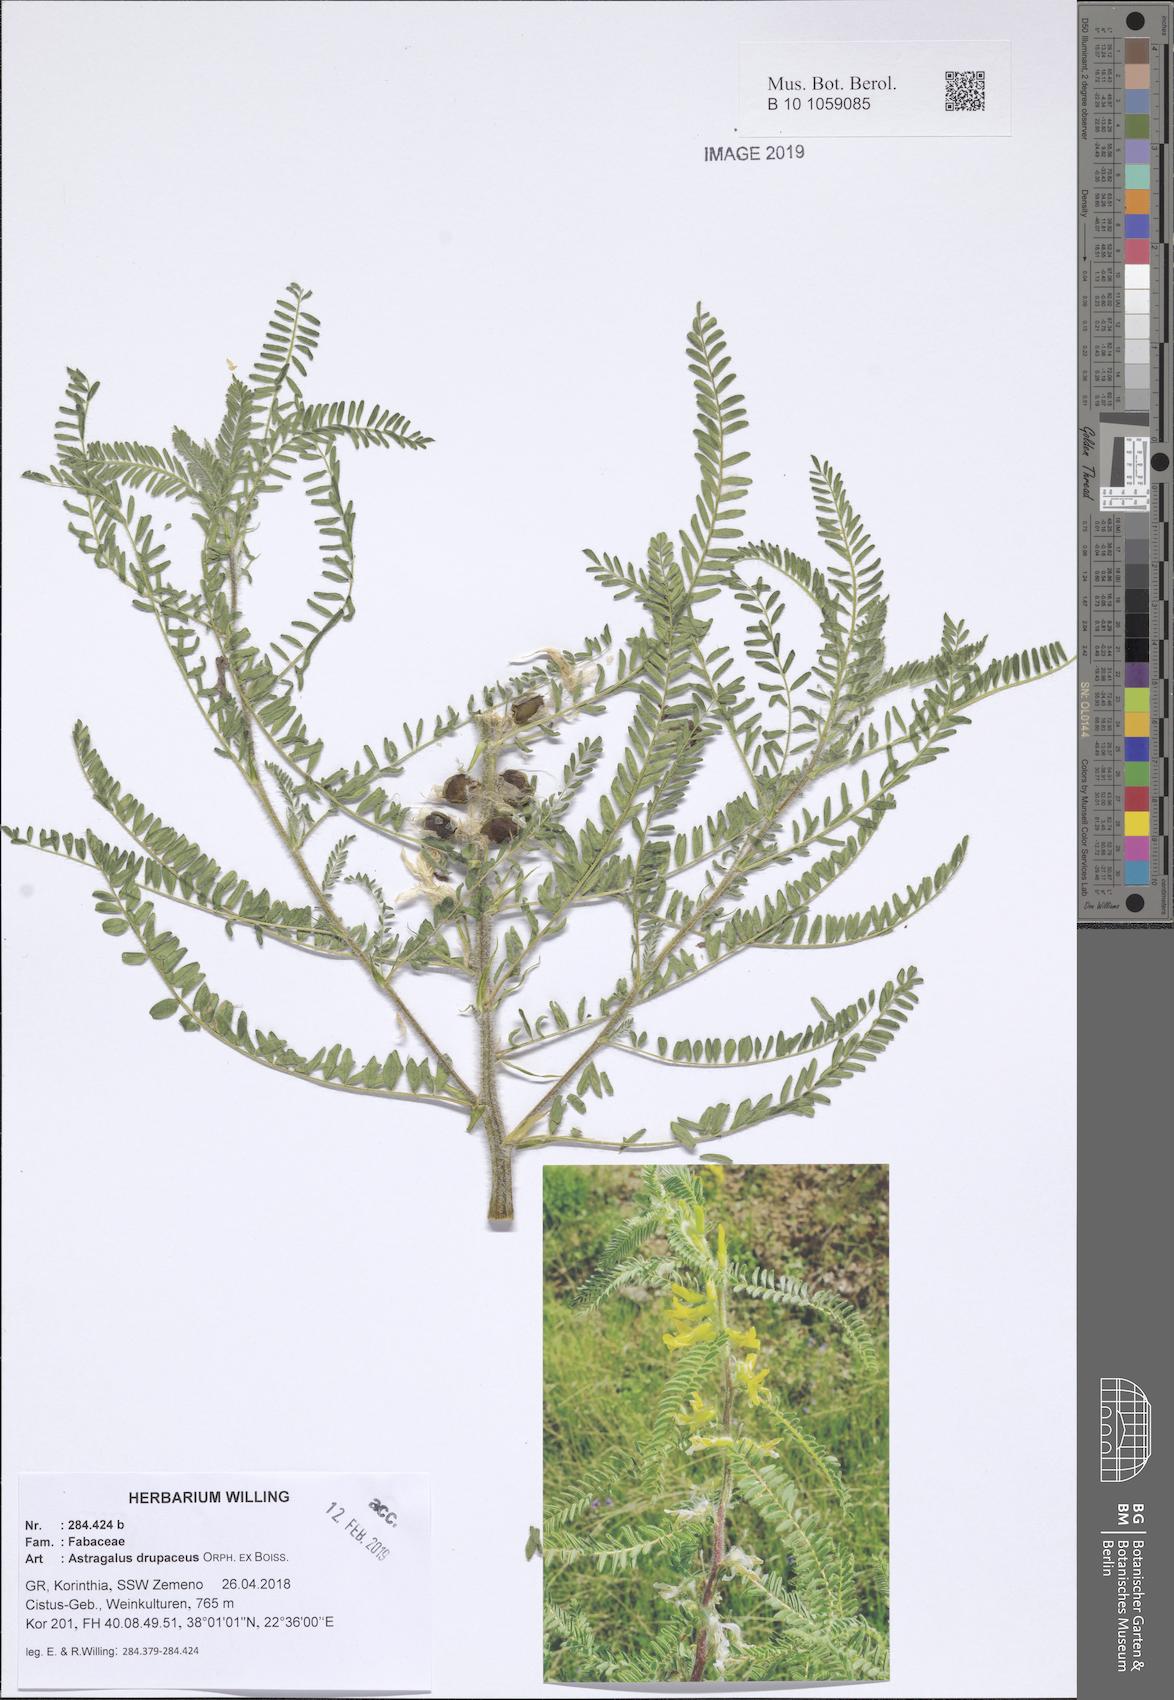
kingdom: Plantae
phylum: Tracheophyta
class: Magnoliopsida
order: Fabales
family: Fabaceae
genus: Astragalus
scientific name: Astragalus drupaceus
